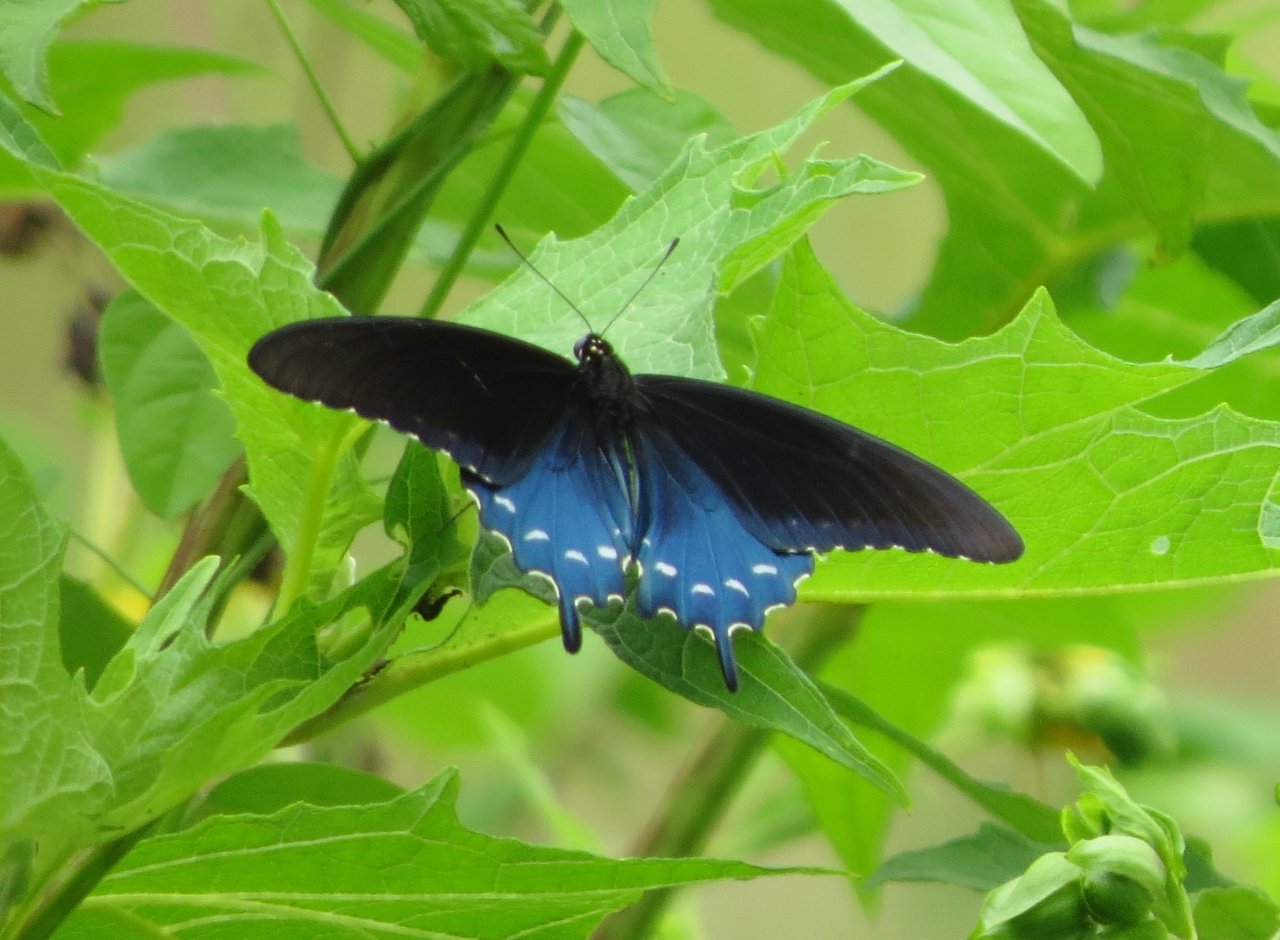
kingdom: Animalia
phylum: Arthropoda
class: Insecta
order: Lepidoptera
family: Papilionidae
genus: Battus
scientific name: Battus philenor
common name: Pipevine Swallowtail
